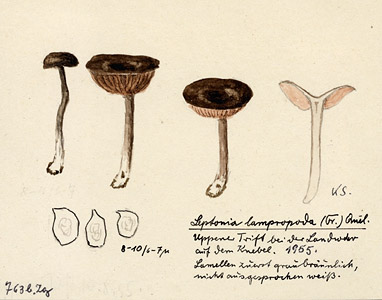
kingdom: Fungi
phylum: Basidiomycota
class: Agaricomycetes
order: Agaricales
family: Entolomataceae
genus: Entoloma
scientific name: Entoloma corvinum
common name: Crow pinkgill
